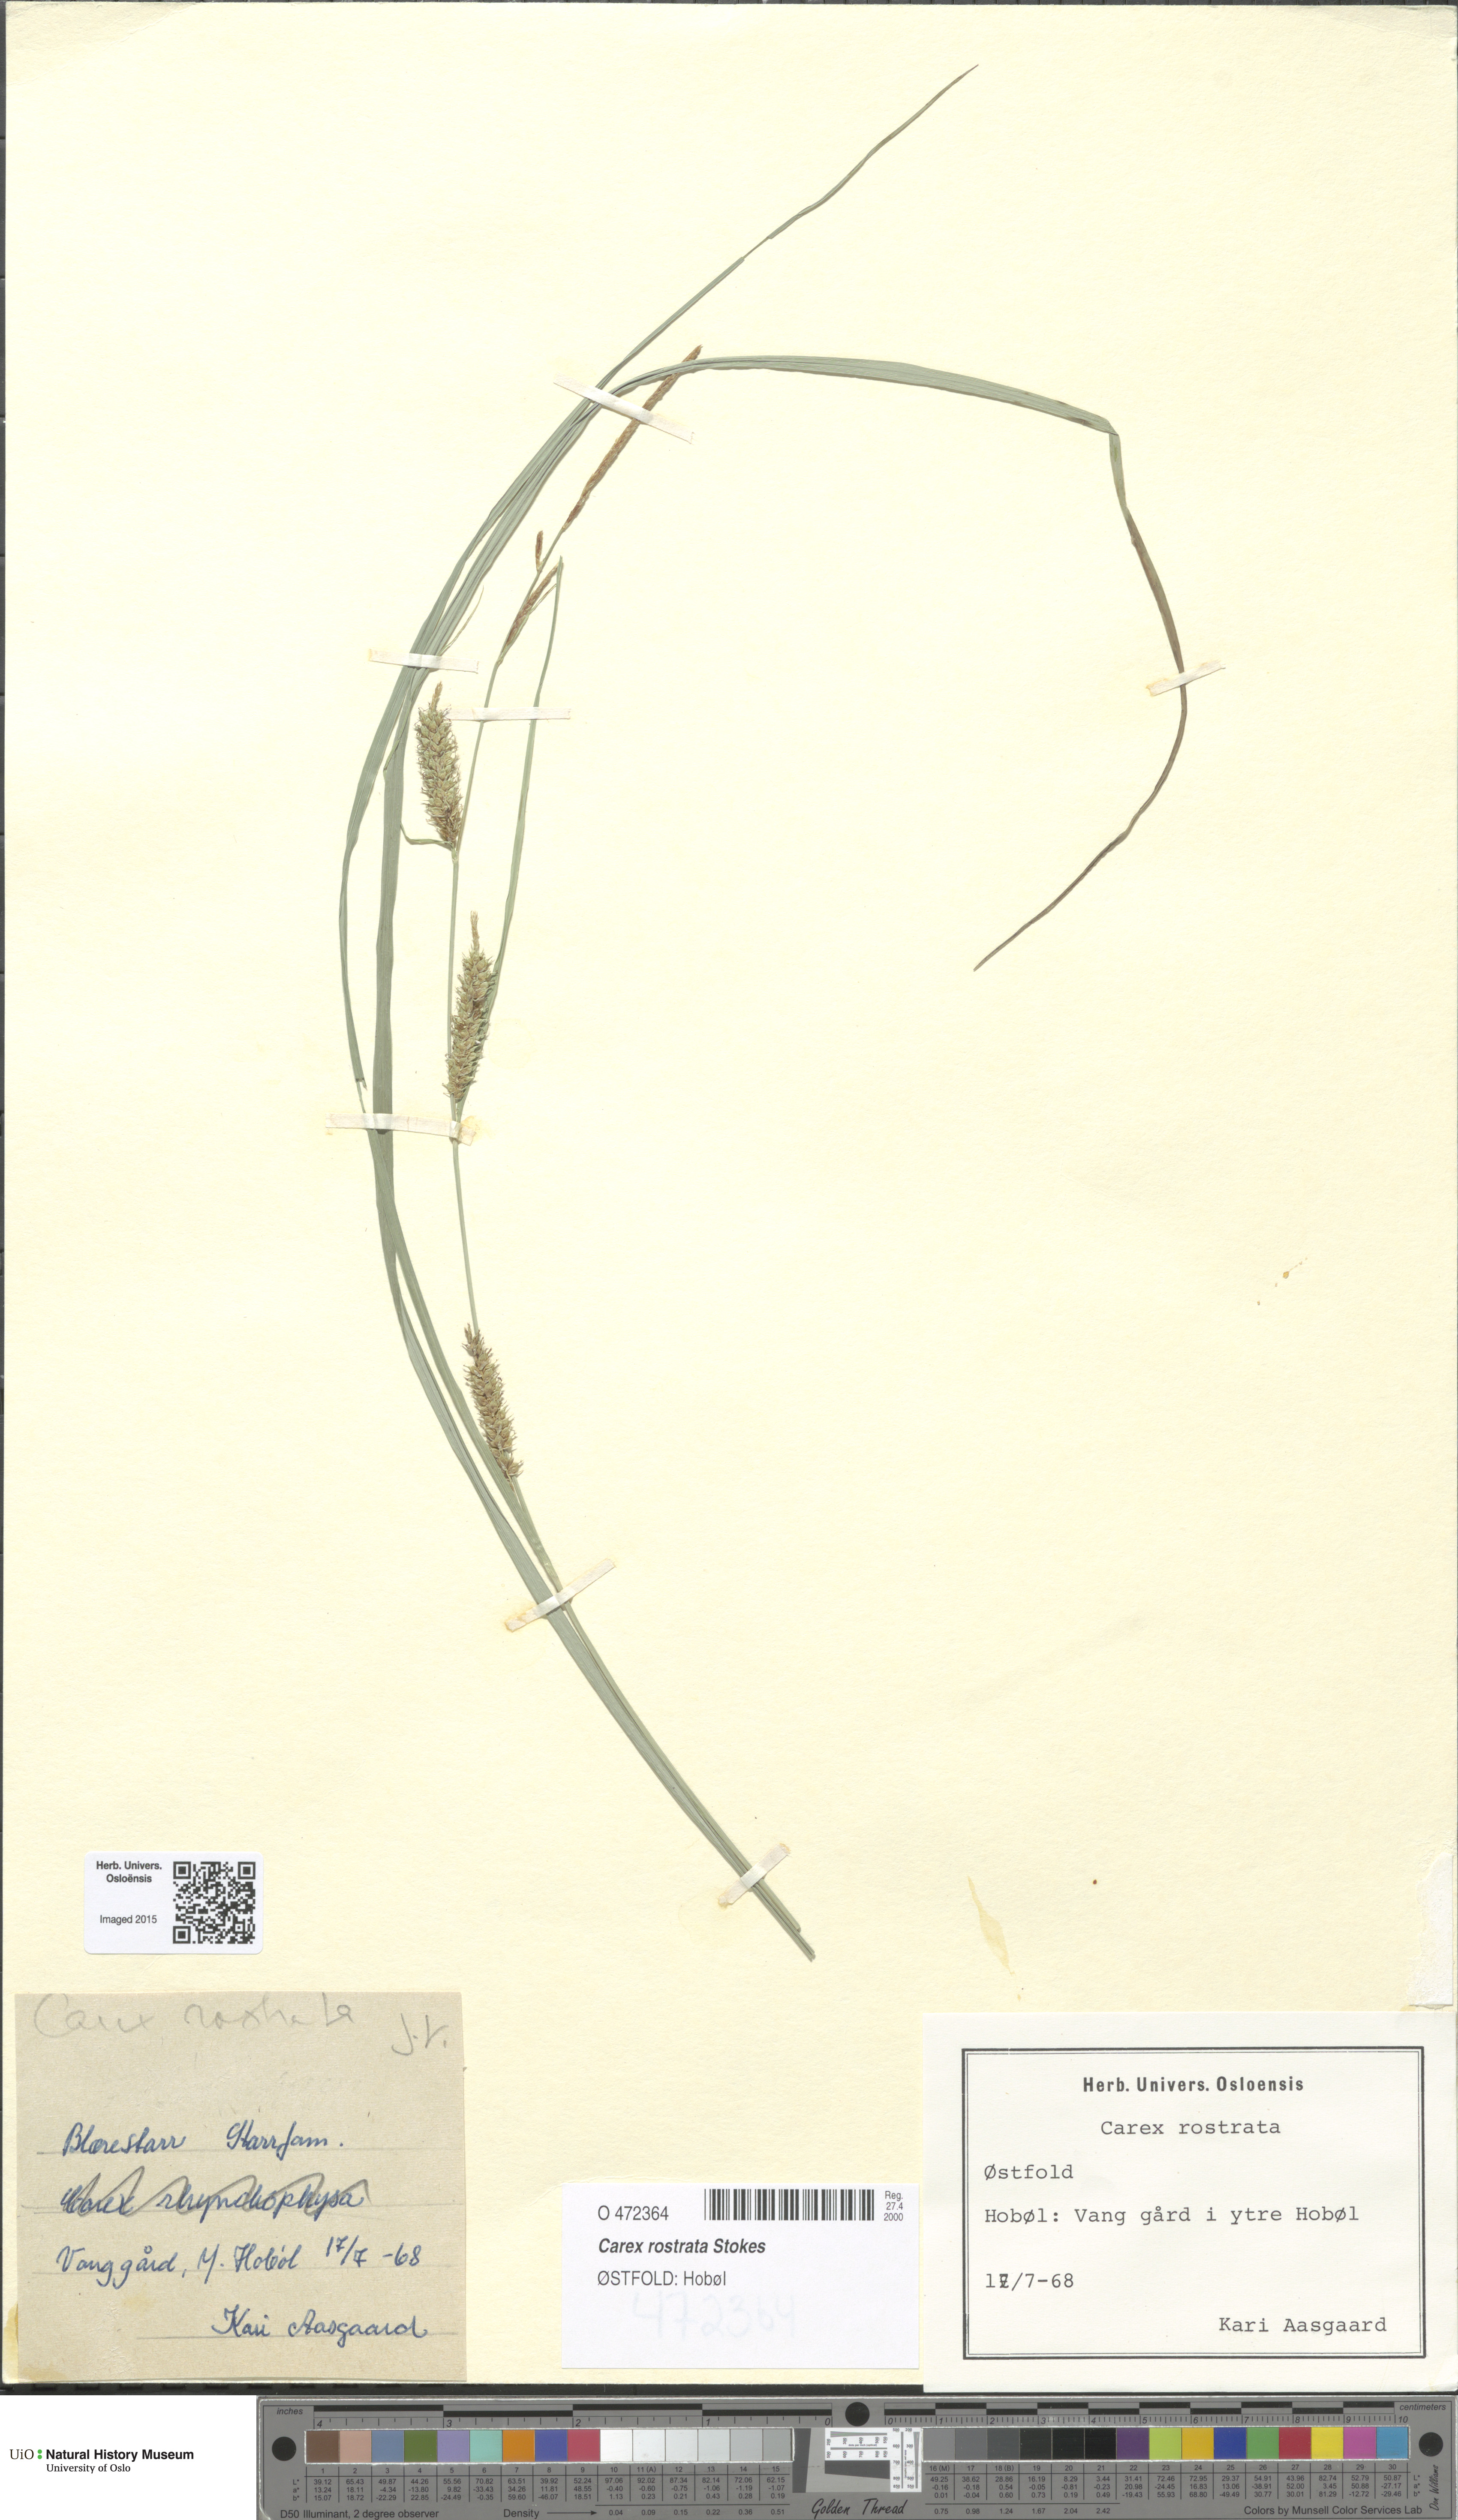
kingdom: Plantae
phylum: Tracheophyta
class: Liliopsida
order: Poales
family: Cyperaceae
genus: Carex
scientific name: Carex rostrata
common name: Bottle sedge
